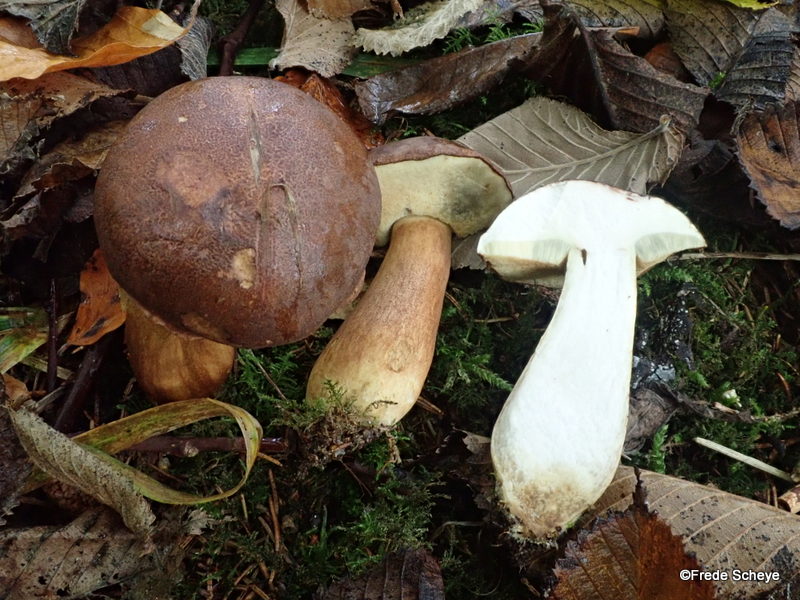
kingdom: Fungi
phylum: Basidiomycota
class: Agaricomycetes
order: Boletales
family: Boletaceae
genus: Imleria
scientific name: Imleria badia
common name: brunstokket rørhat
